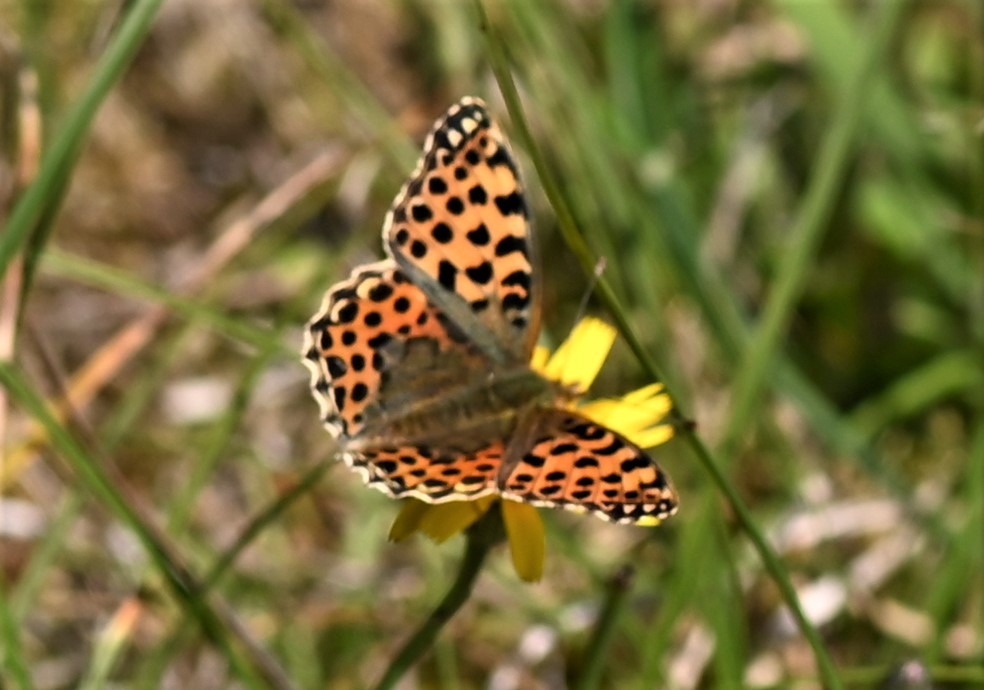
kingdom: Animalia
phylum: Arthropoda
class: Insecta
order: Lepidoptera
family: Nymphalidae
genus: Issoria
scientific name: Issoria lathonia
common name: Storplettet perlemorsommerfugl
